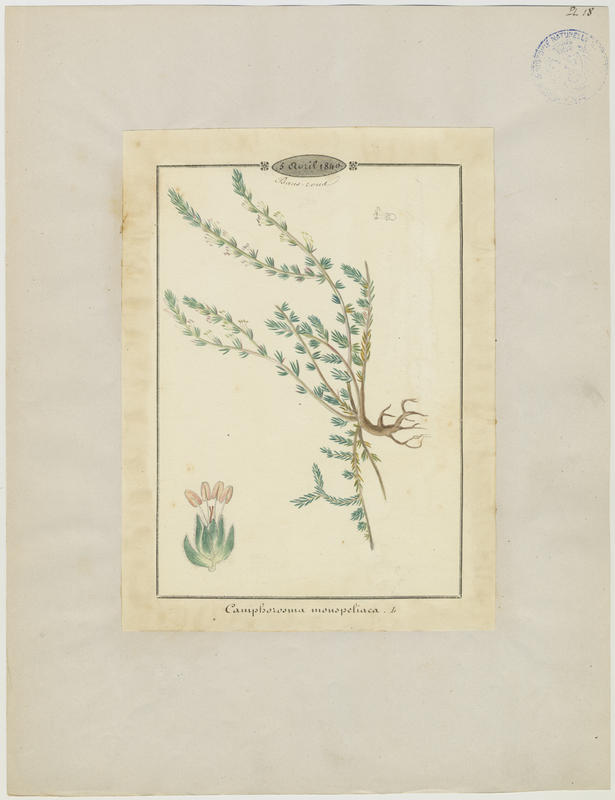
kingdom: Plantae
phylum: Tracheophyta
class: Magnoliopsida
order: Caryophyllales
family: Amaranthaceae
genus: Camphorosma
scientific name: Camphorosma monspeliaca
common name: Camphorfume
